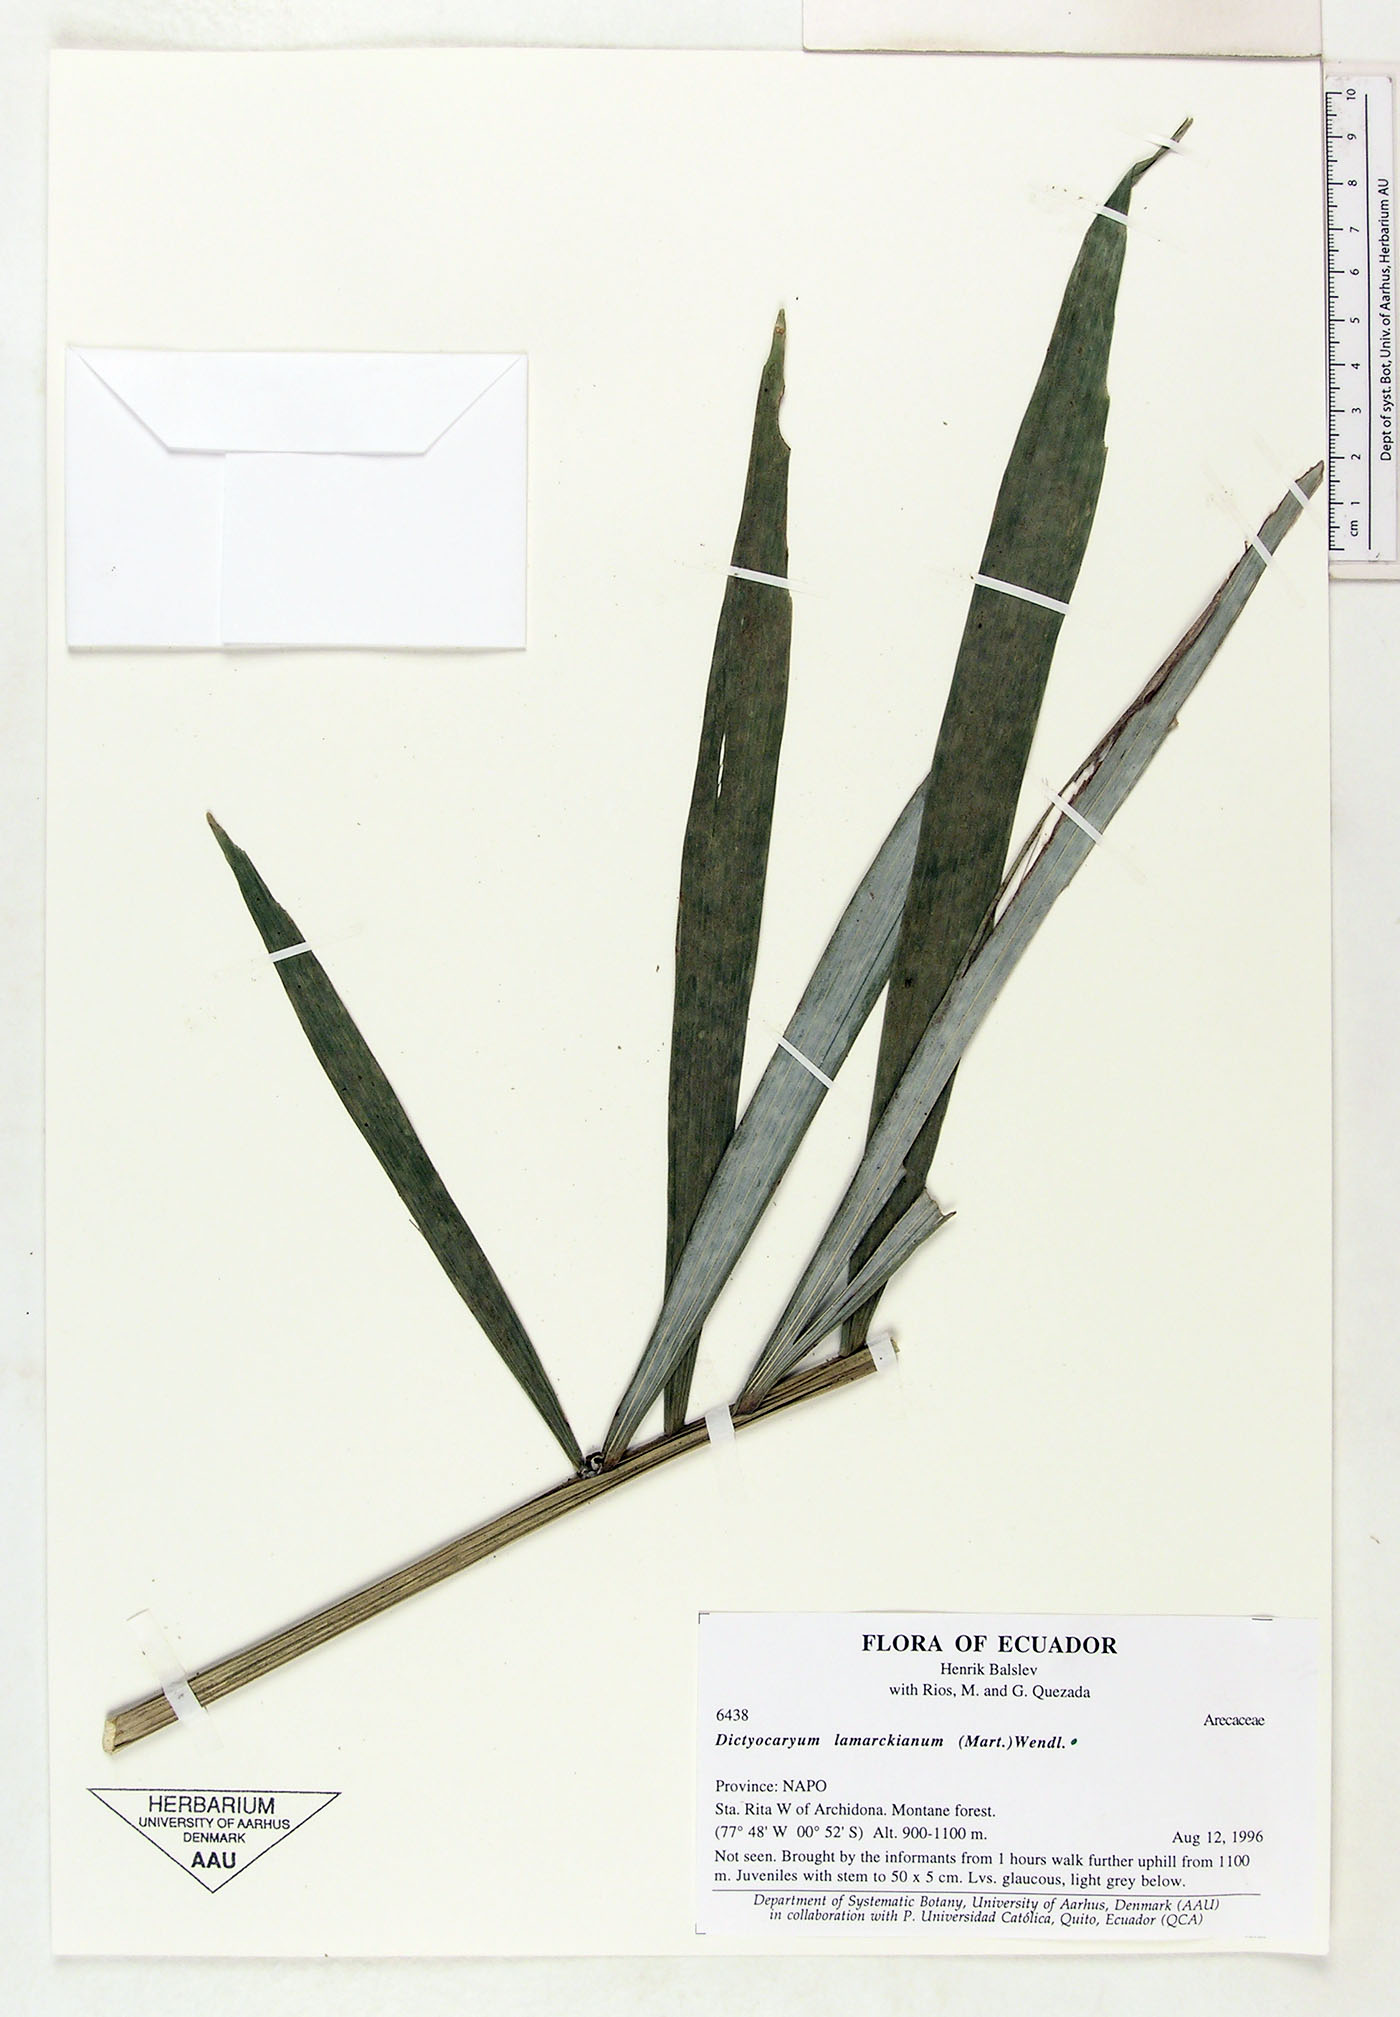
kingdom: Plantae
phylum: Tracheophyta
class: Liliopsida
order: Arecales
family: Arecaceae
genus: Dictyocaryum
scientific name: Dictyocaryum lamarckianum
